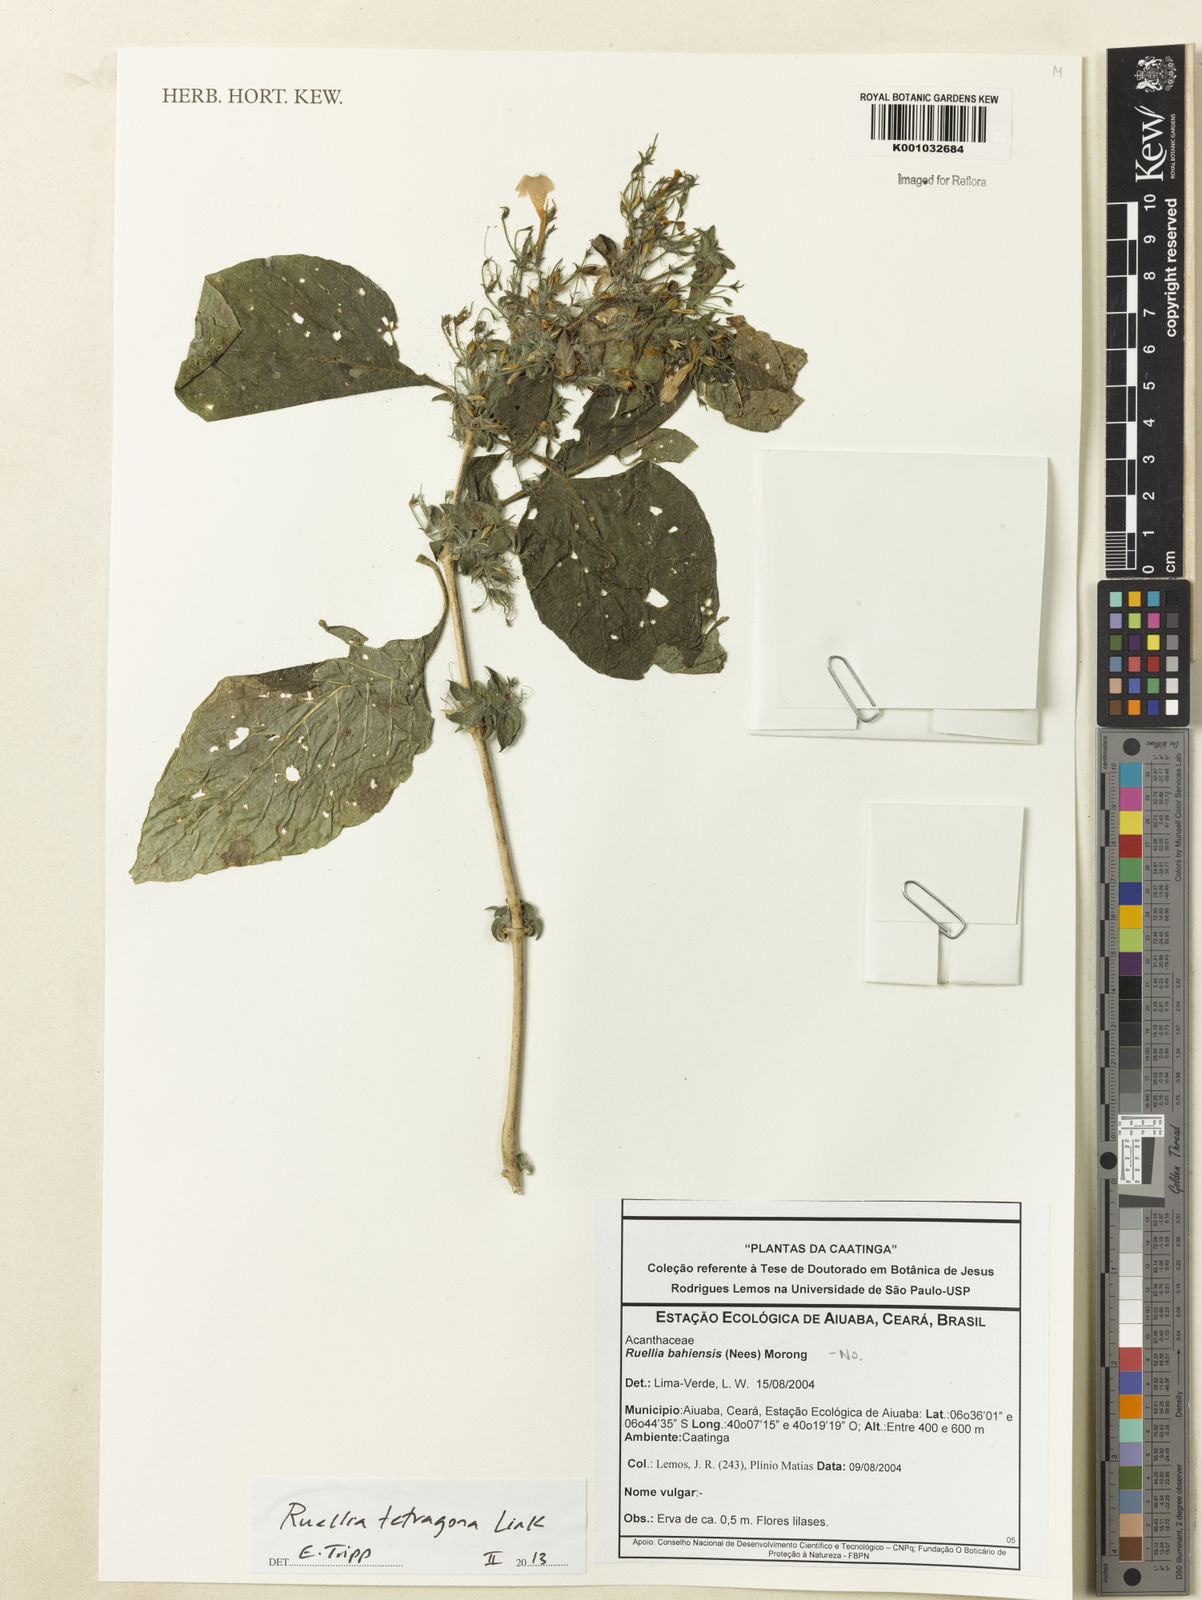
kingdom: Plantae
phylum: Tracheophyta
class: Magnoliopsida
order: Lamiales
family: Acanthaceae
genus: Ruellia
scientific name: Ruellia
